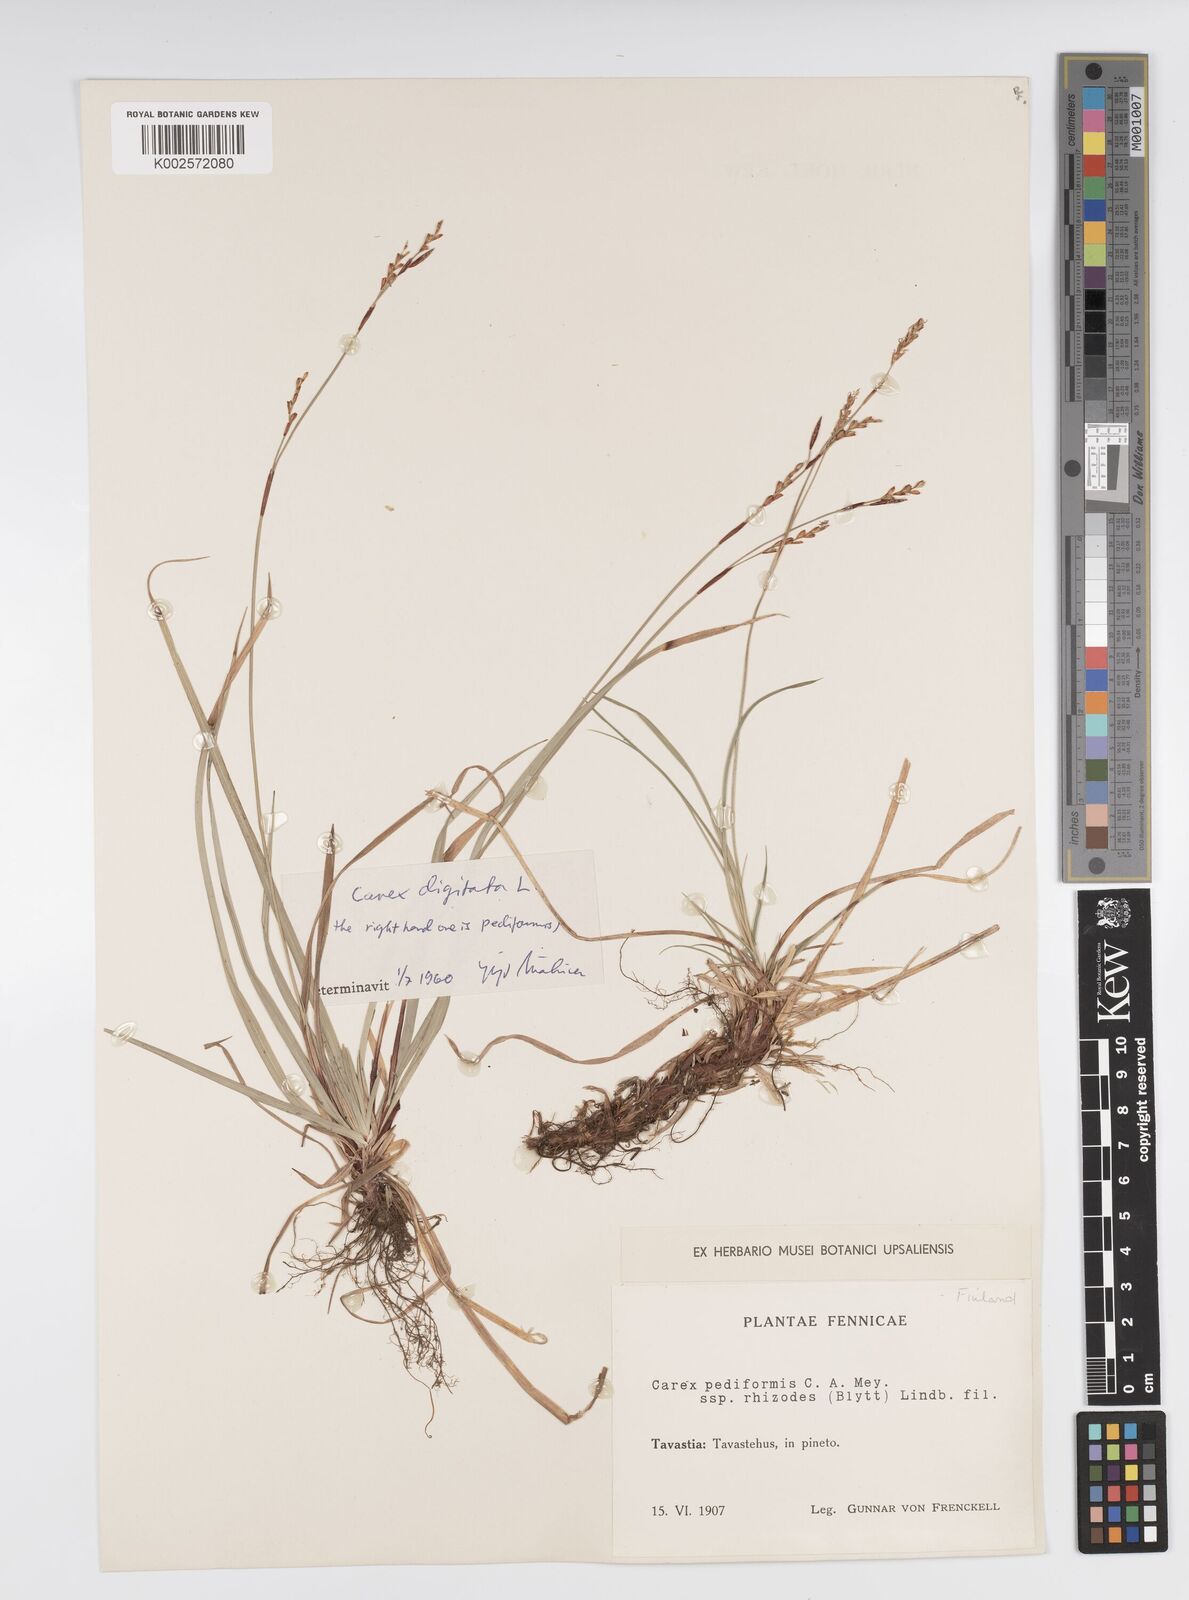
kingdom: Plantae
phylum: Tracheophyta
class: Liliopsida
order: Poales
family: Cyperaceae
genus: Carex
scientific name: Carex pediformis
